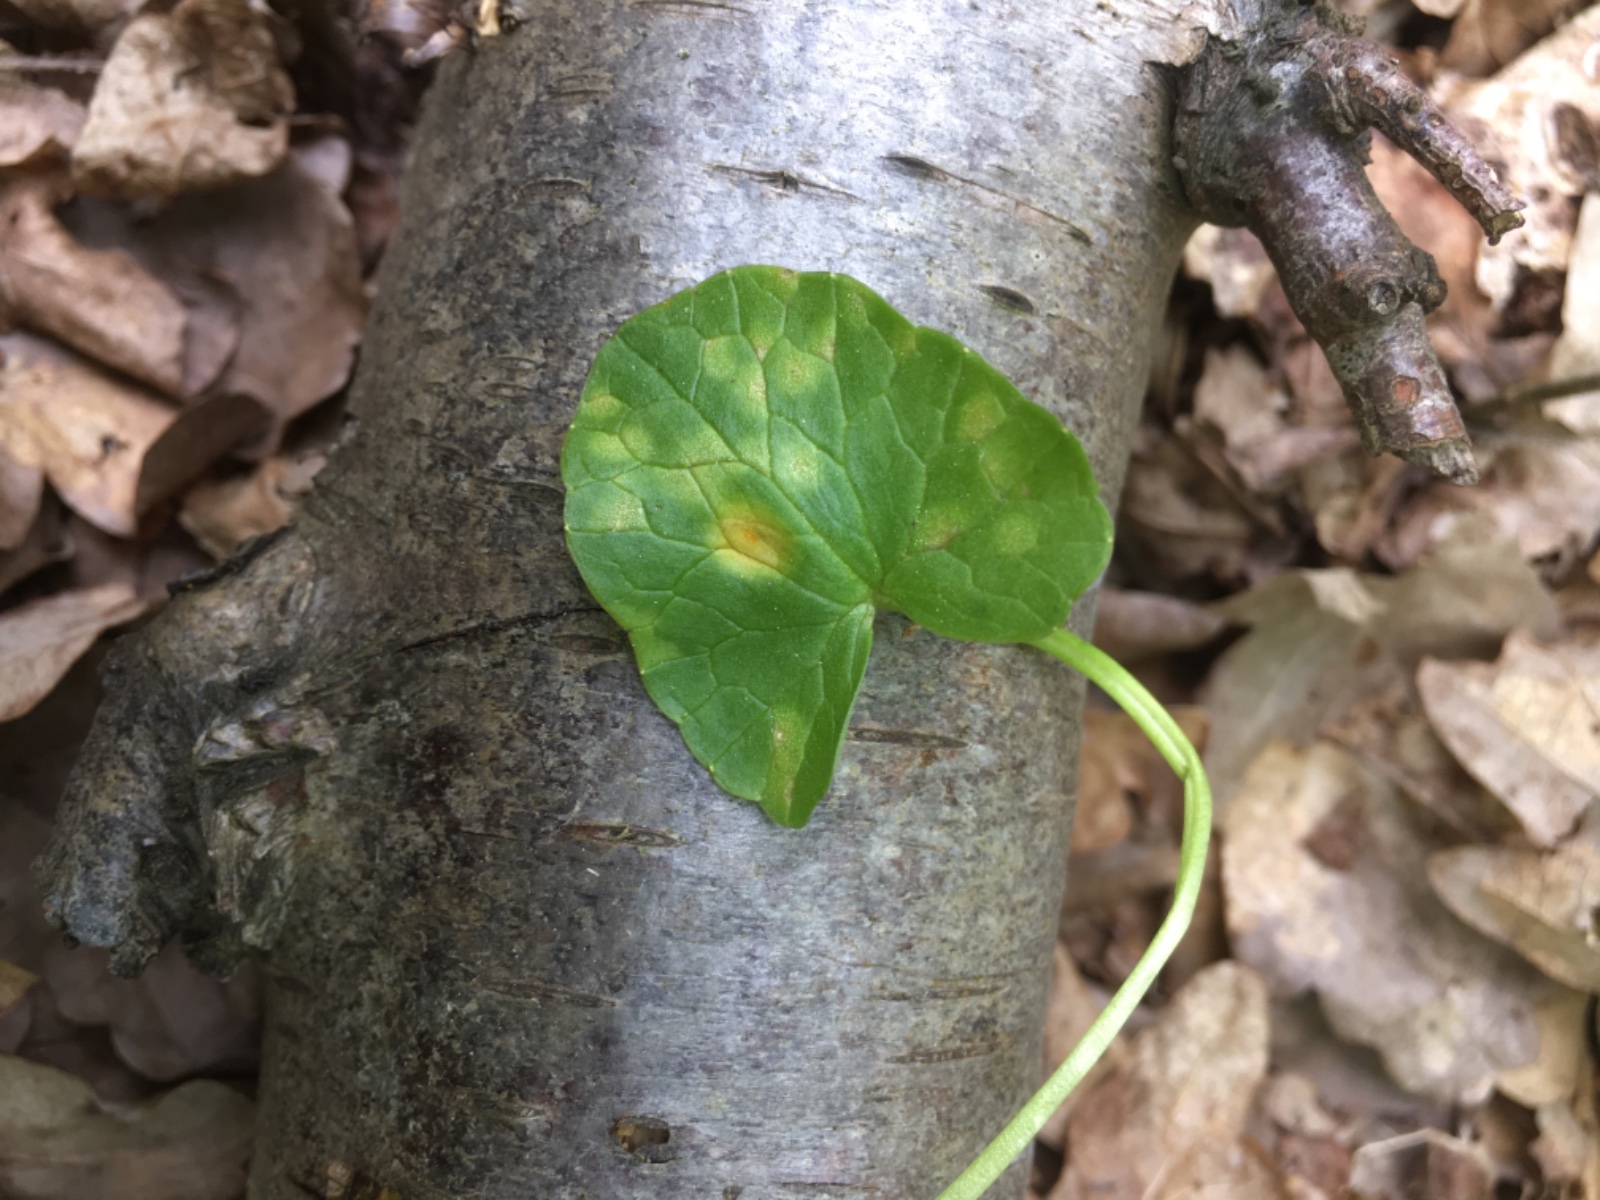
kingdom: Fungi
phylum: Basidiomycota
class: Pucciniomycetes
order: Pucciniales
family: Pucciniaceae
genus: Uromyces
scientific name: Uromyces dactylidis
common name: ranunkel-encellerust
